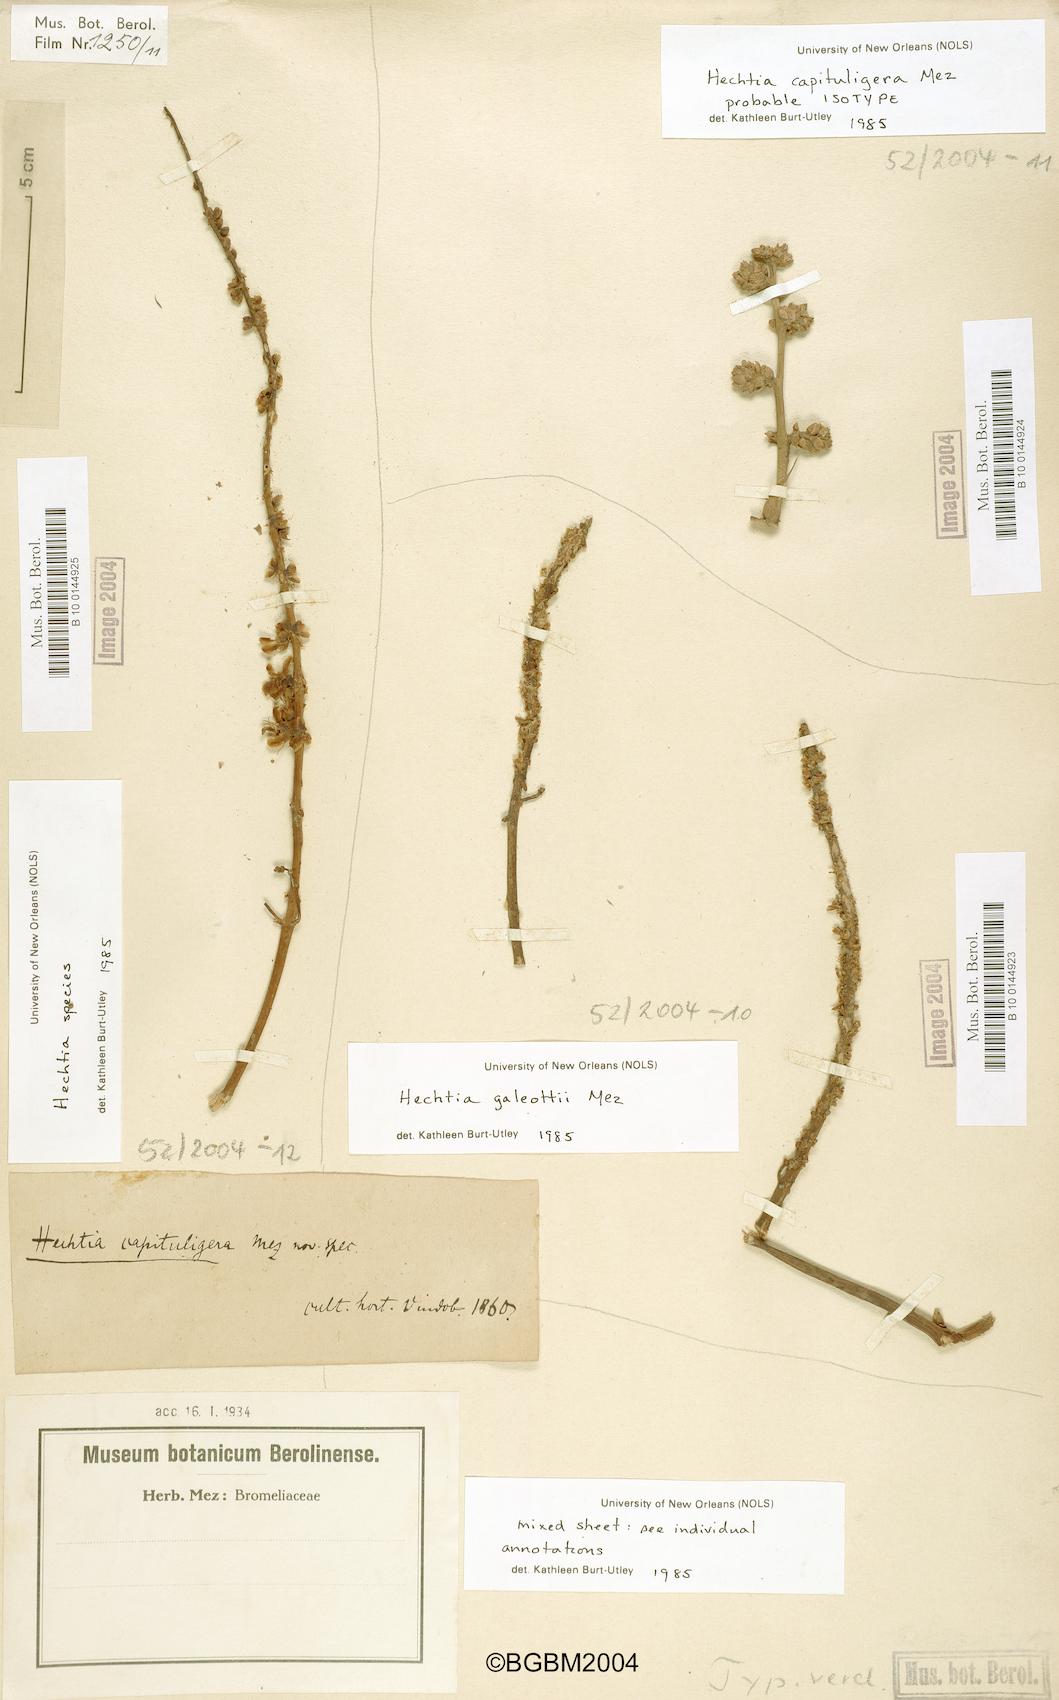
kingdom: Plantae
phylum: Tracheophyta
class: Liliopsida
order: Poales
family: Bromeliaceae
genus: Hechtia
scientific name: Hechtia galeottii
